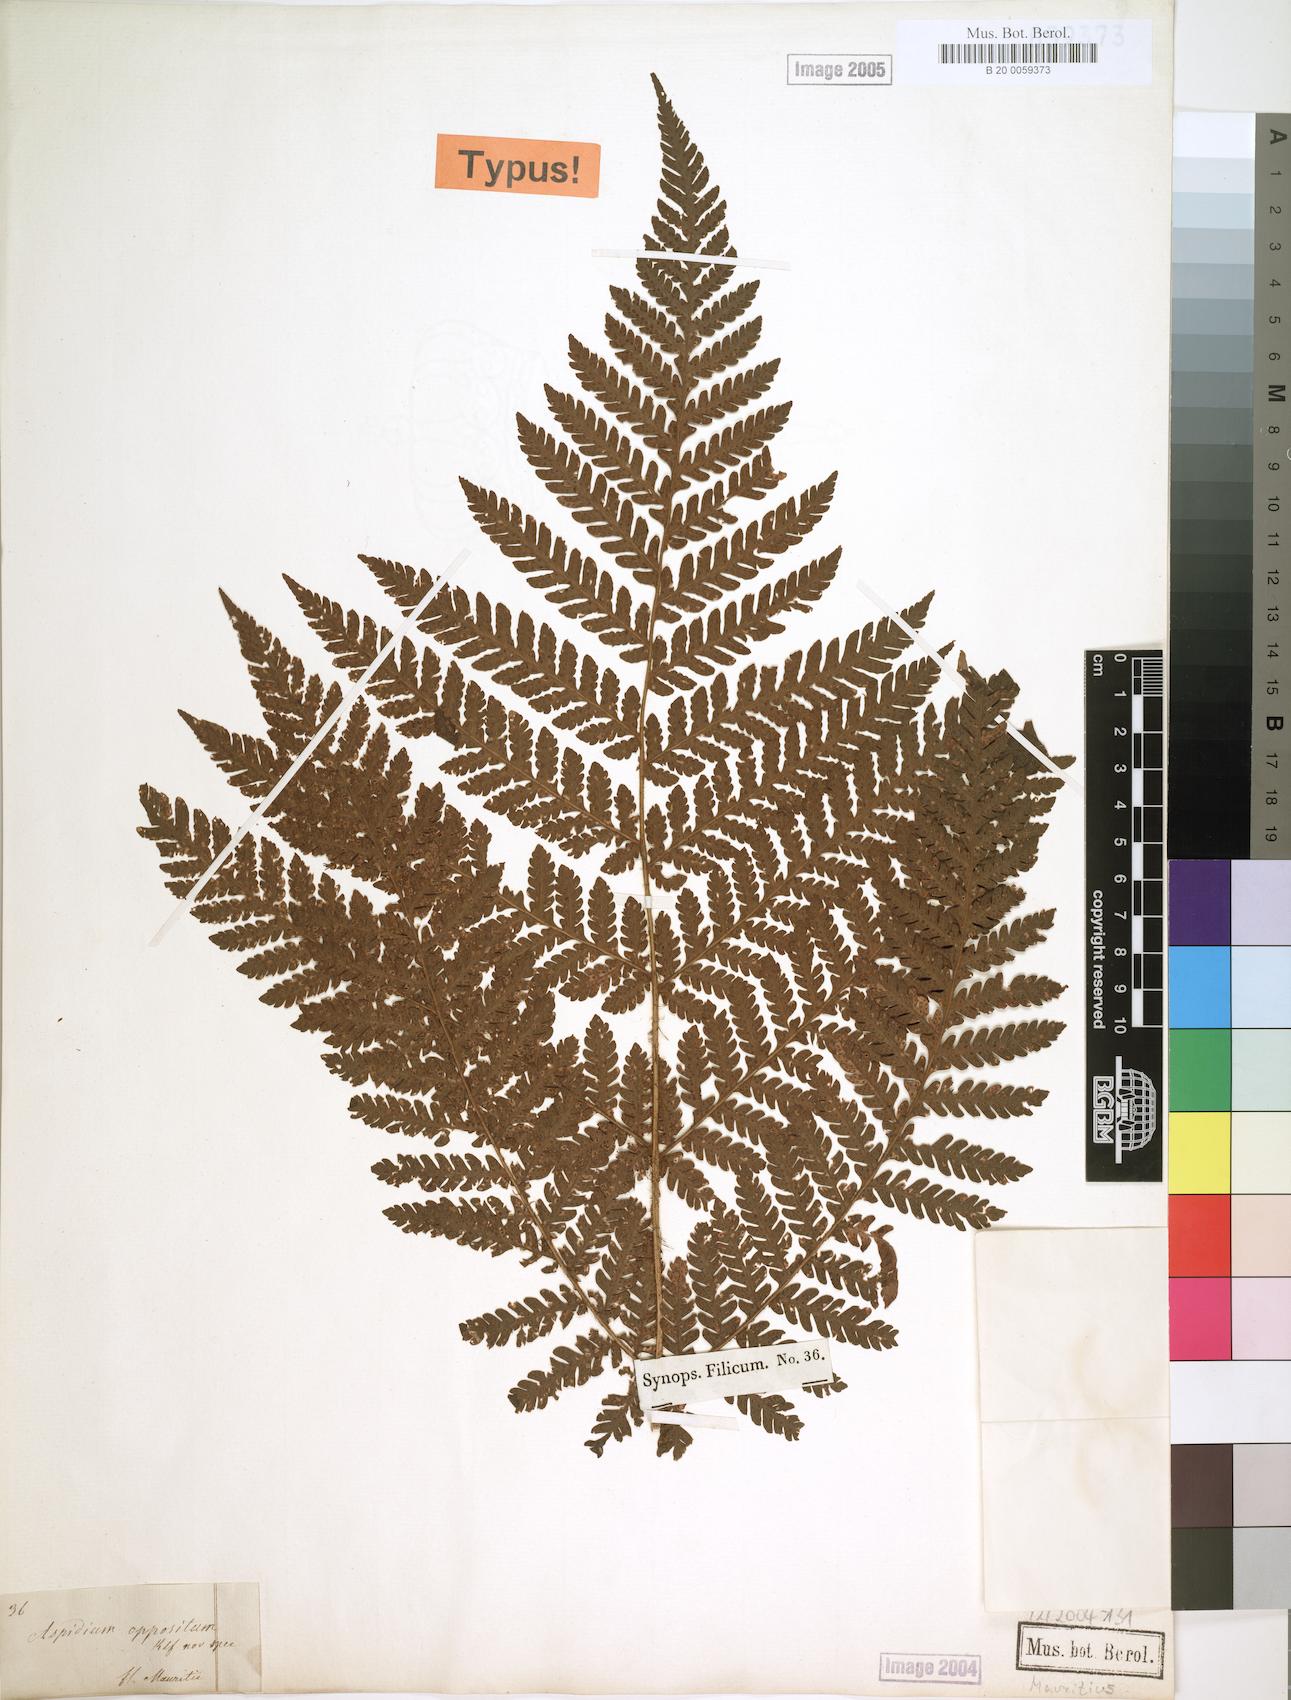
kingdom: Plantae
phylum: Tracheophyta
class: Polypodiopsida
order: Polypodiales
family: Dryopteridaceae
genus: Megalastrum
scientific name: Megalastrum oppositum
